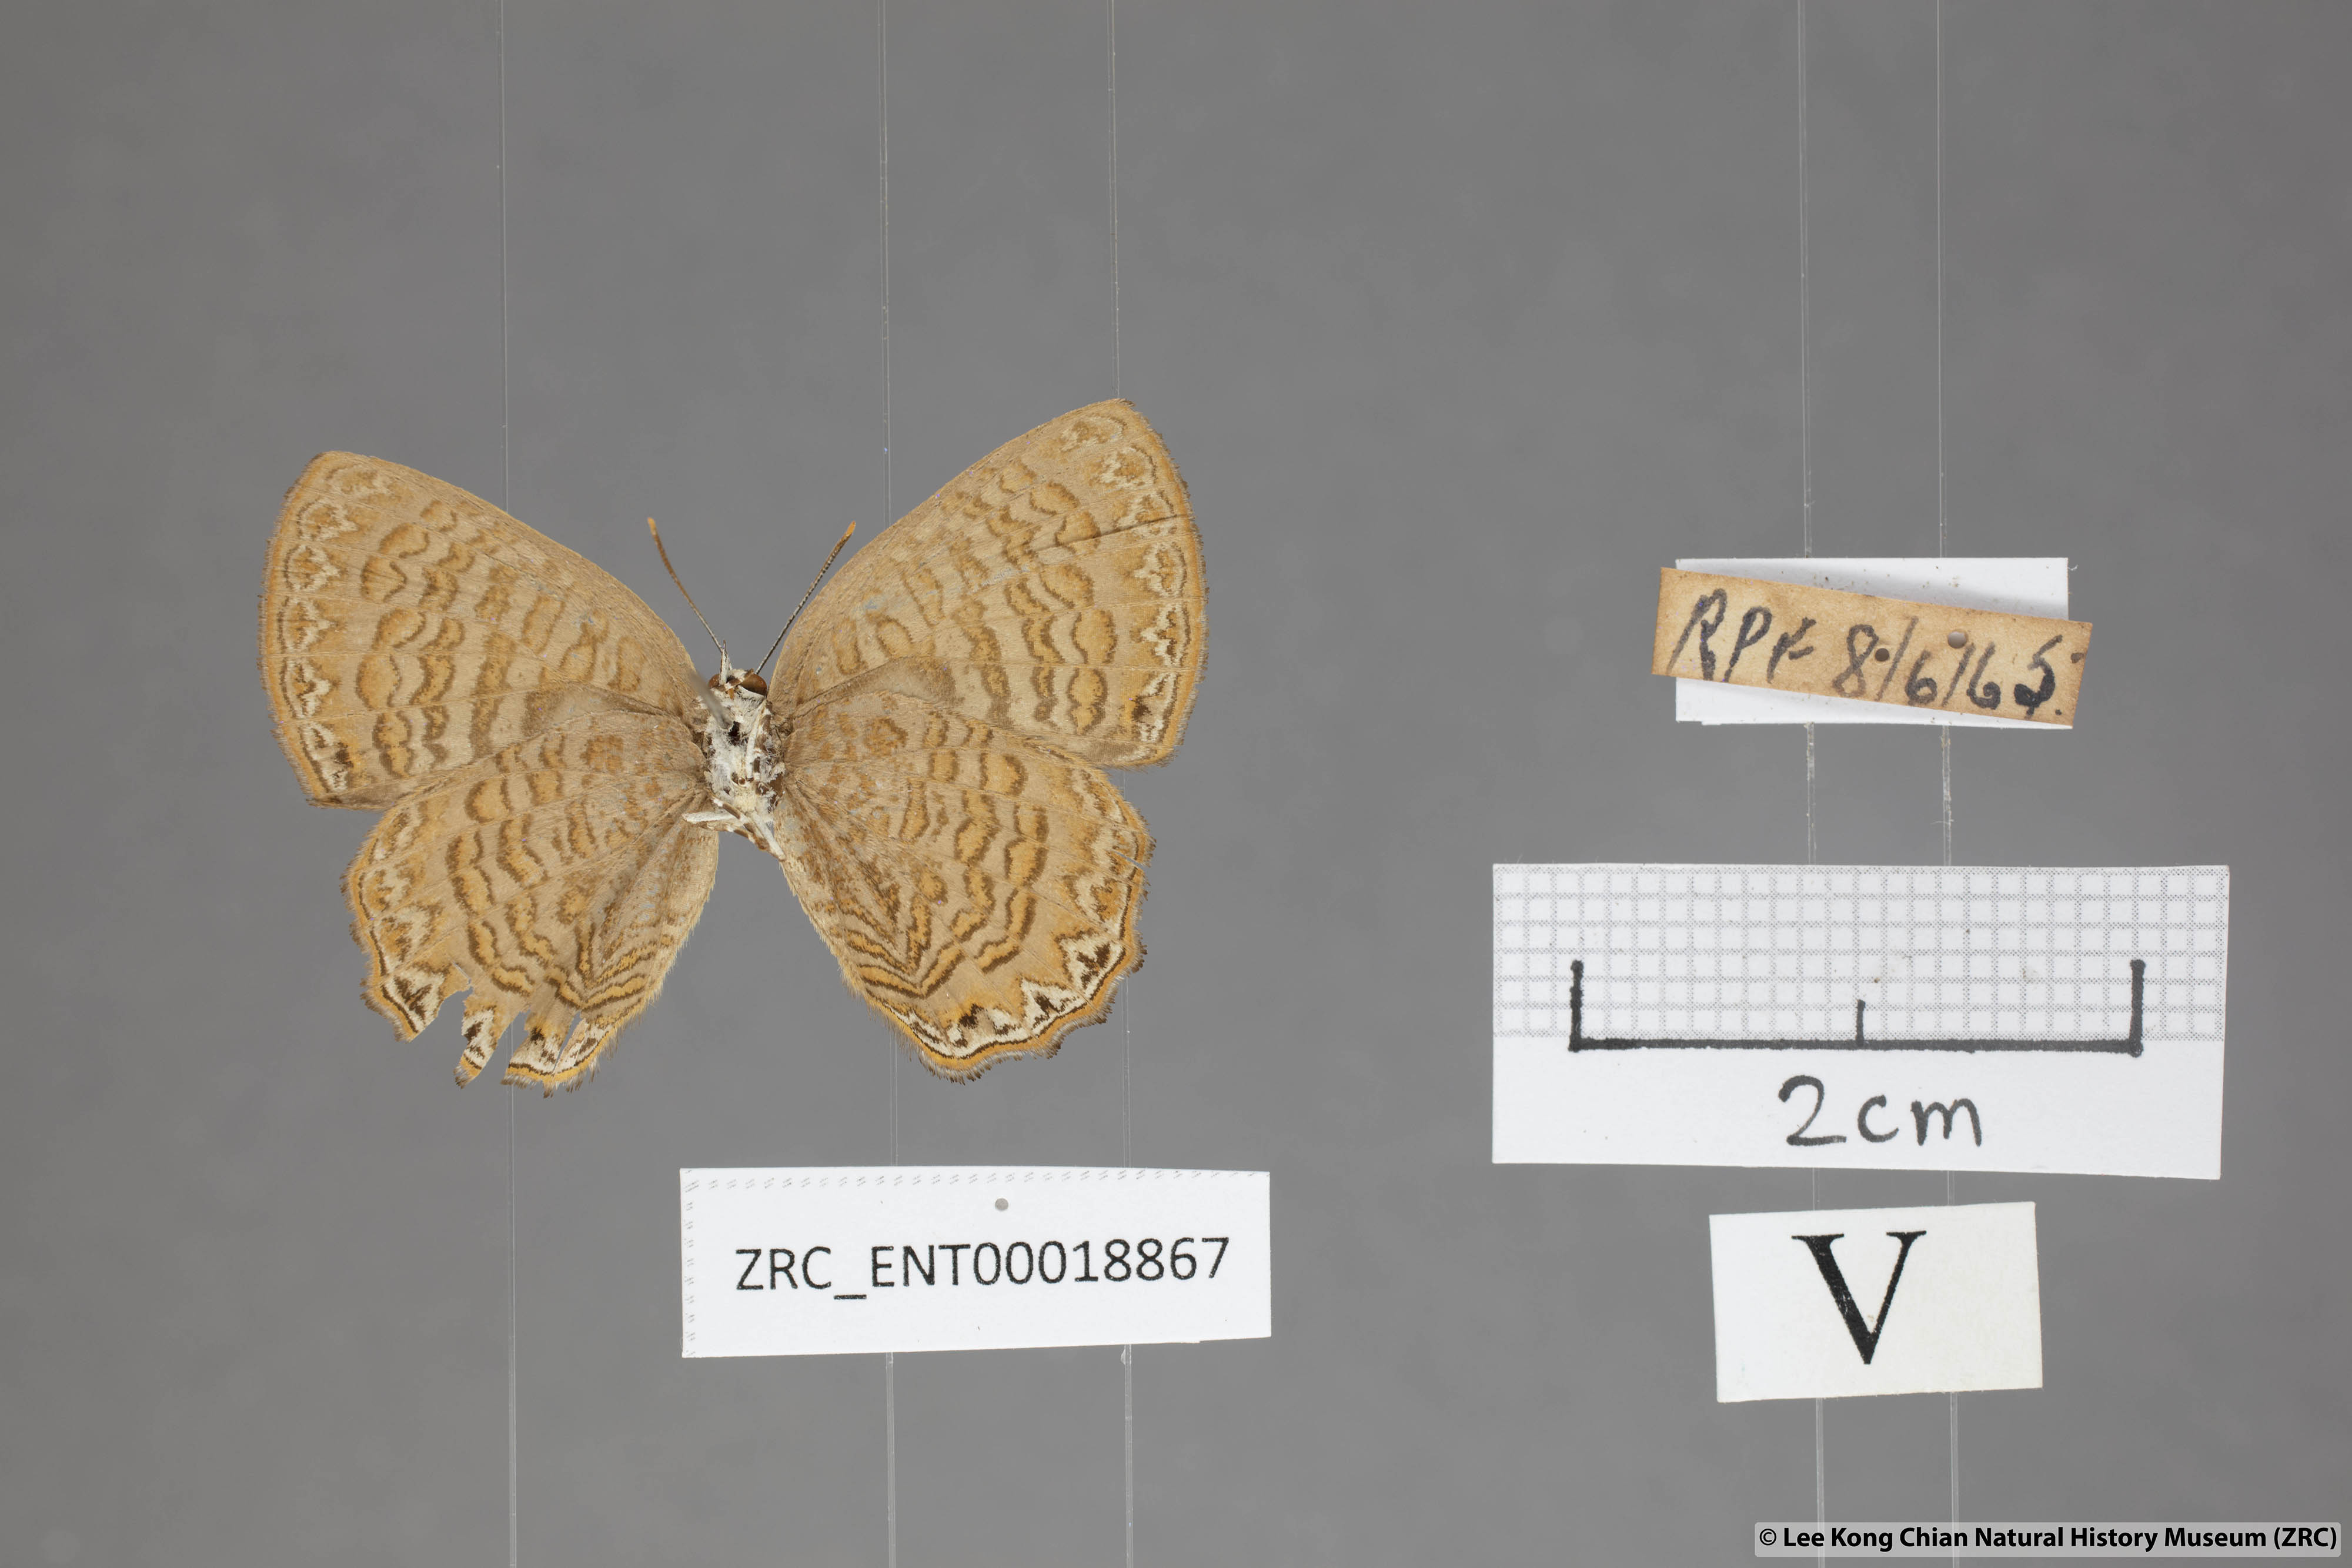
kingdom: Animalia
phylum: Arthropoda
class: Insecta
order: Lepidoptera
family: Lycaenidae
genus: Poritia
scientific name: Poritia sumatrae
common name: Sumatran gem
